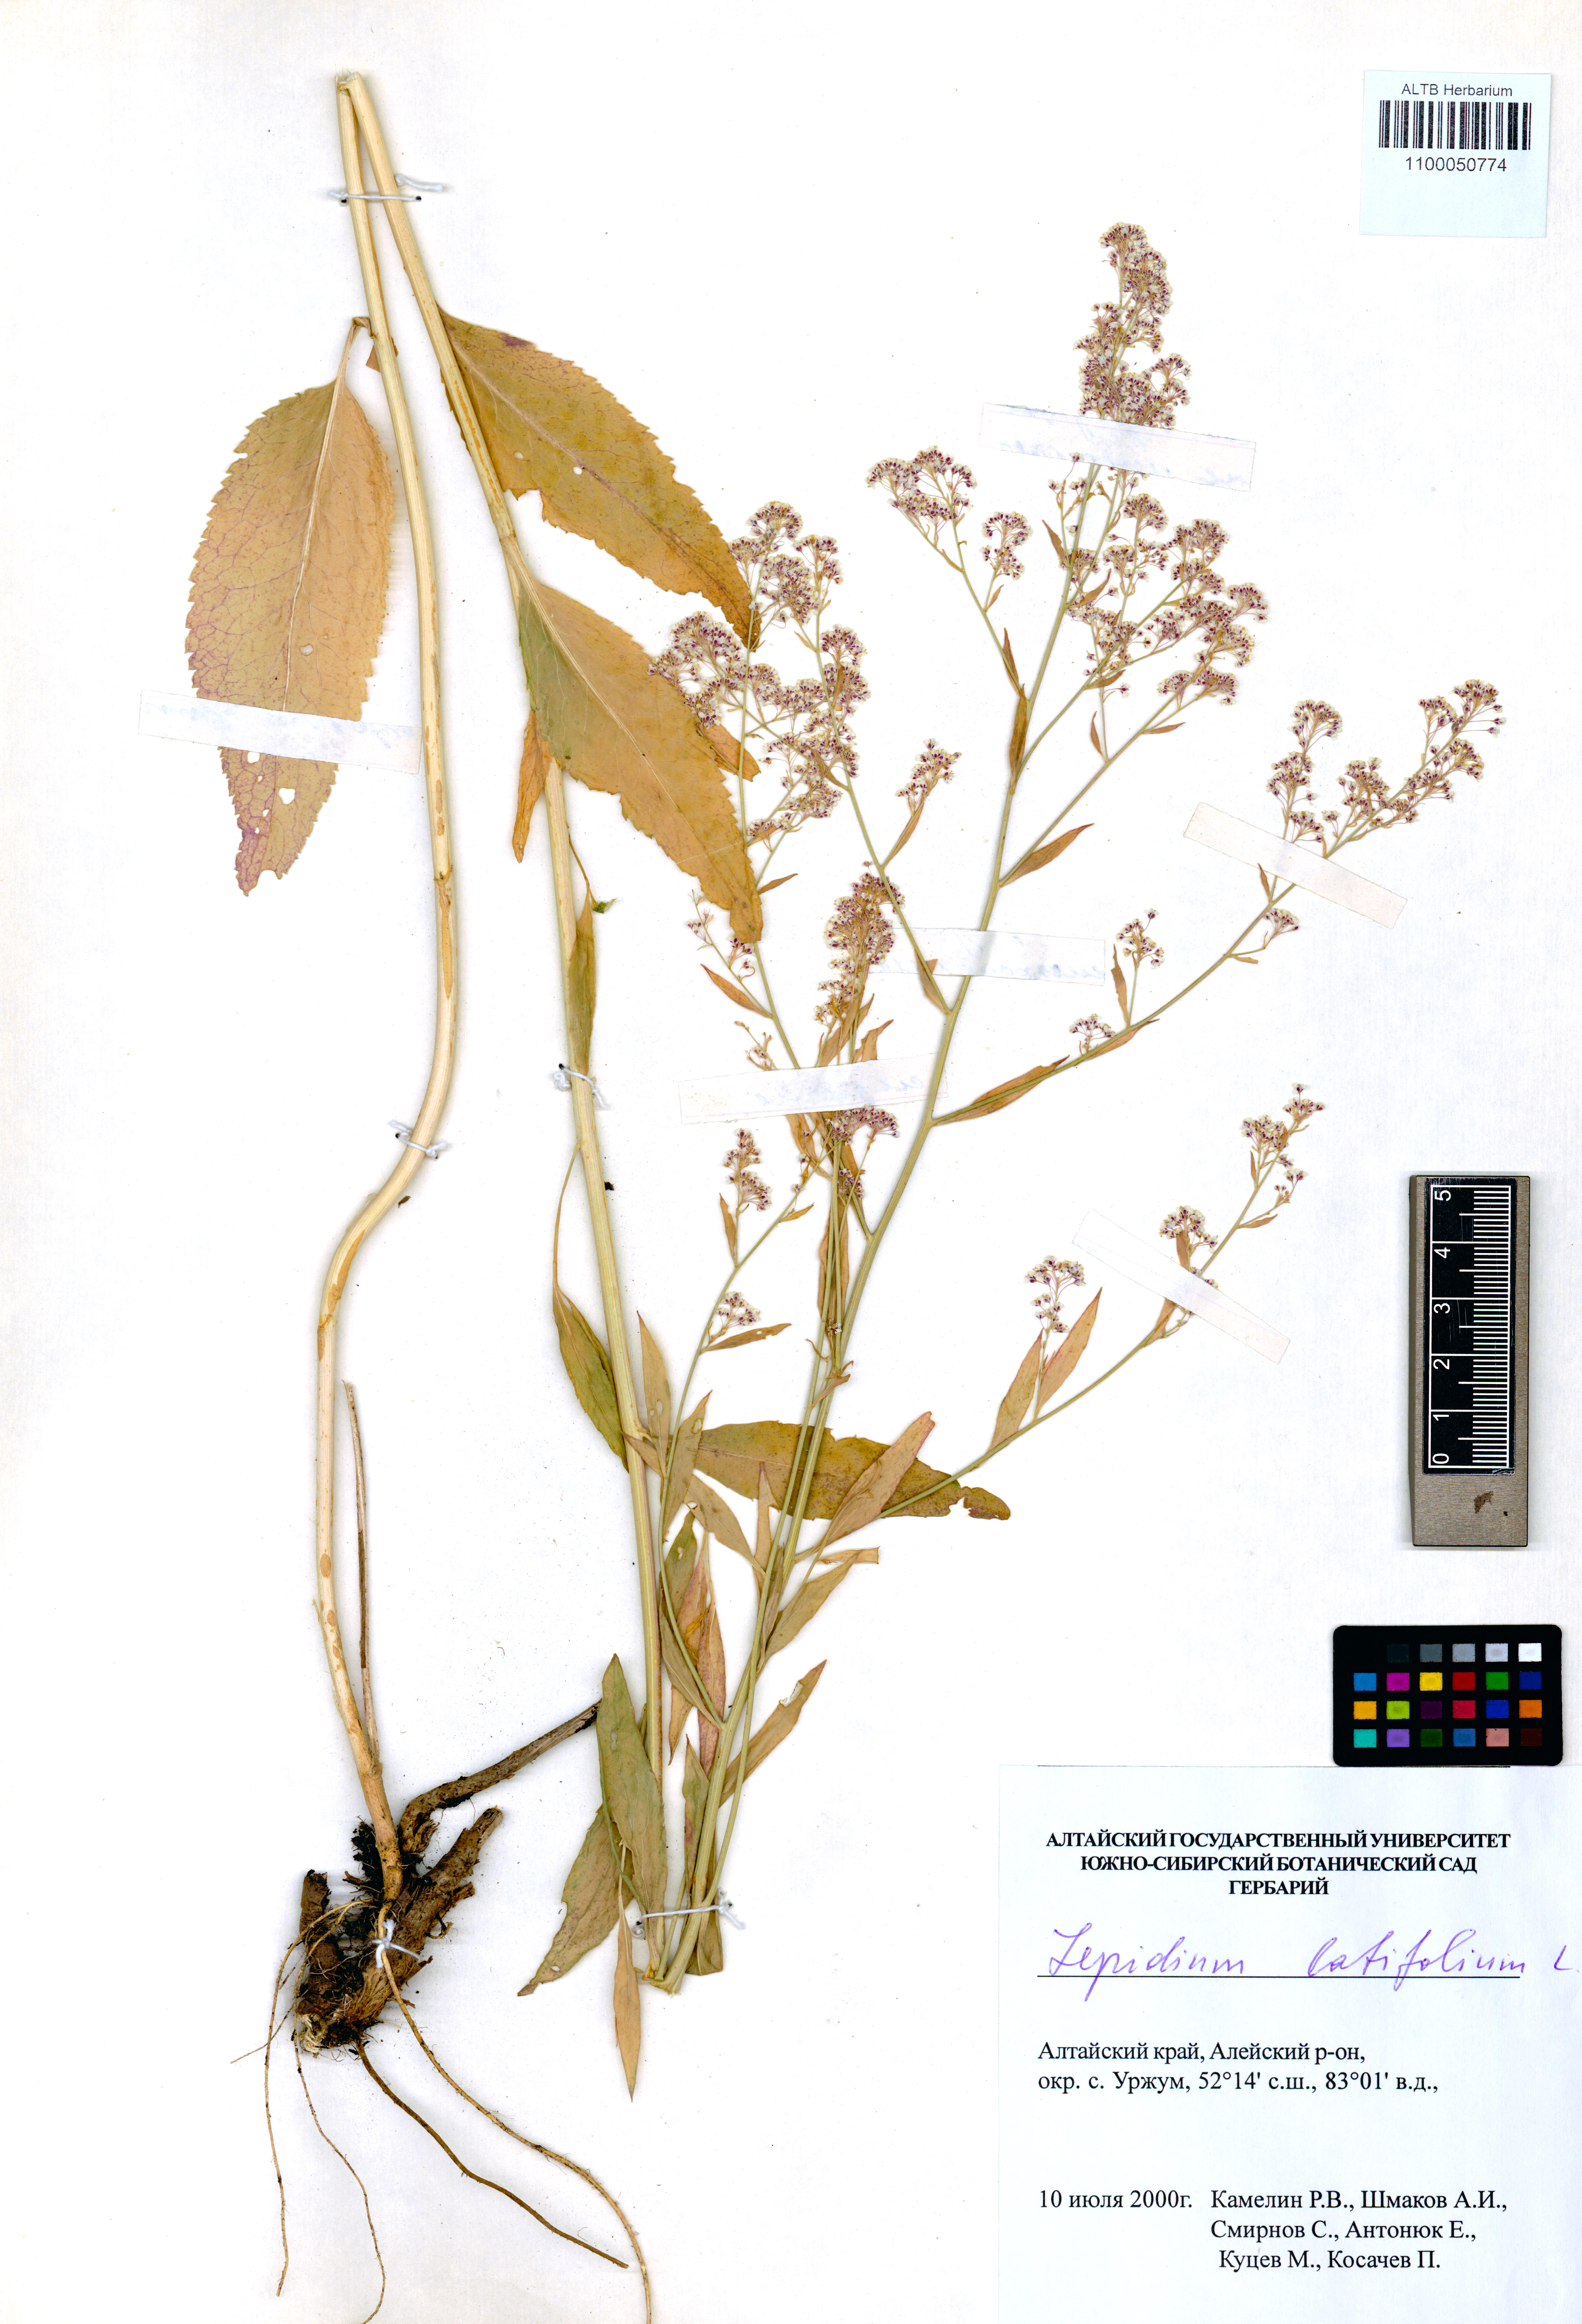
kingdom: Plantae
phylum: Tracheophyta
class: Magnoliopsida
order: Brassicales
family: Brassicaceae
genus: Lepidium
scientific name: Lepidium latifolium
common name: Dittander
